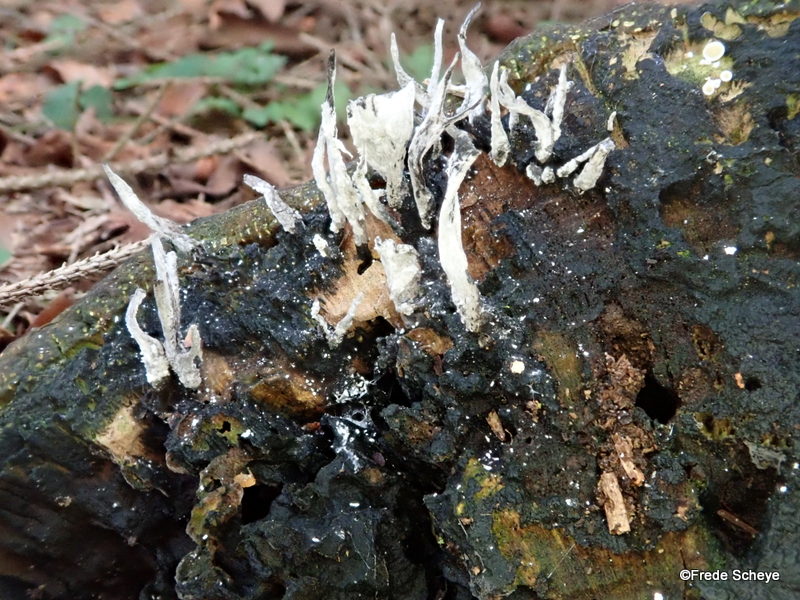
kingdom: Fungi
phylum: Ascomycota
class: Sordariomycetes
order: Xylariales
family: Xylariaceae
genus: Xylaria
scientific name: Xylaria hypoxylon
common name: grenet stødsvamp
